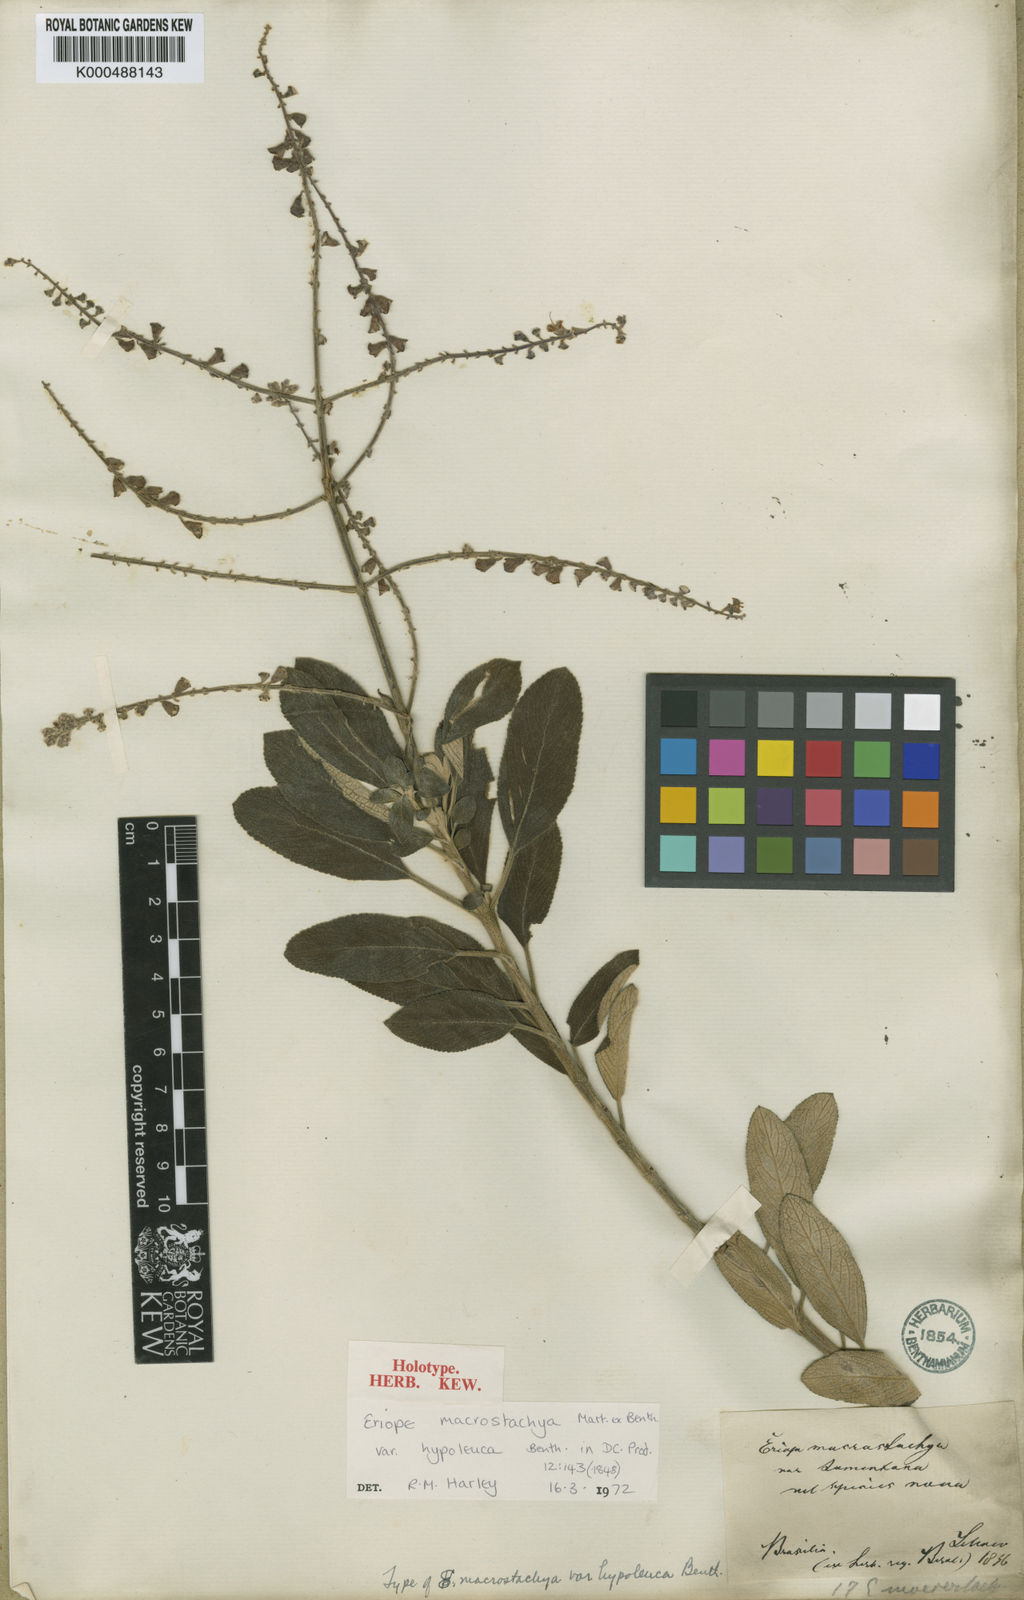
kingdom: Plantae
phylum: Tracheophyta
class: Magnoliopsida
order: Lamiales
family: Lamiaceae
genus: Eriope
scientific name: Eriope macrostachya
